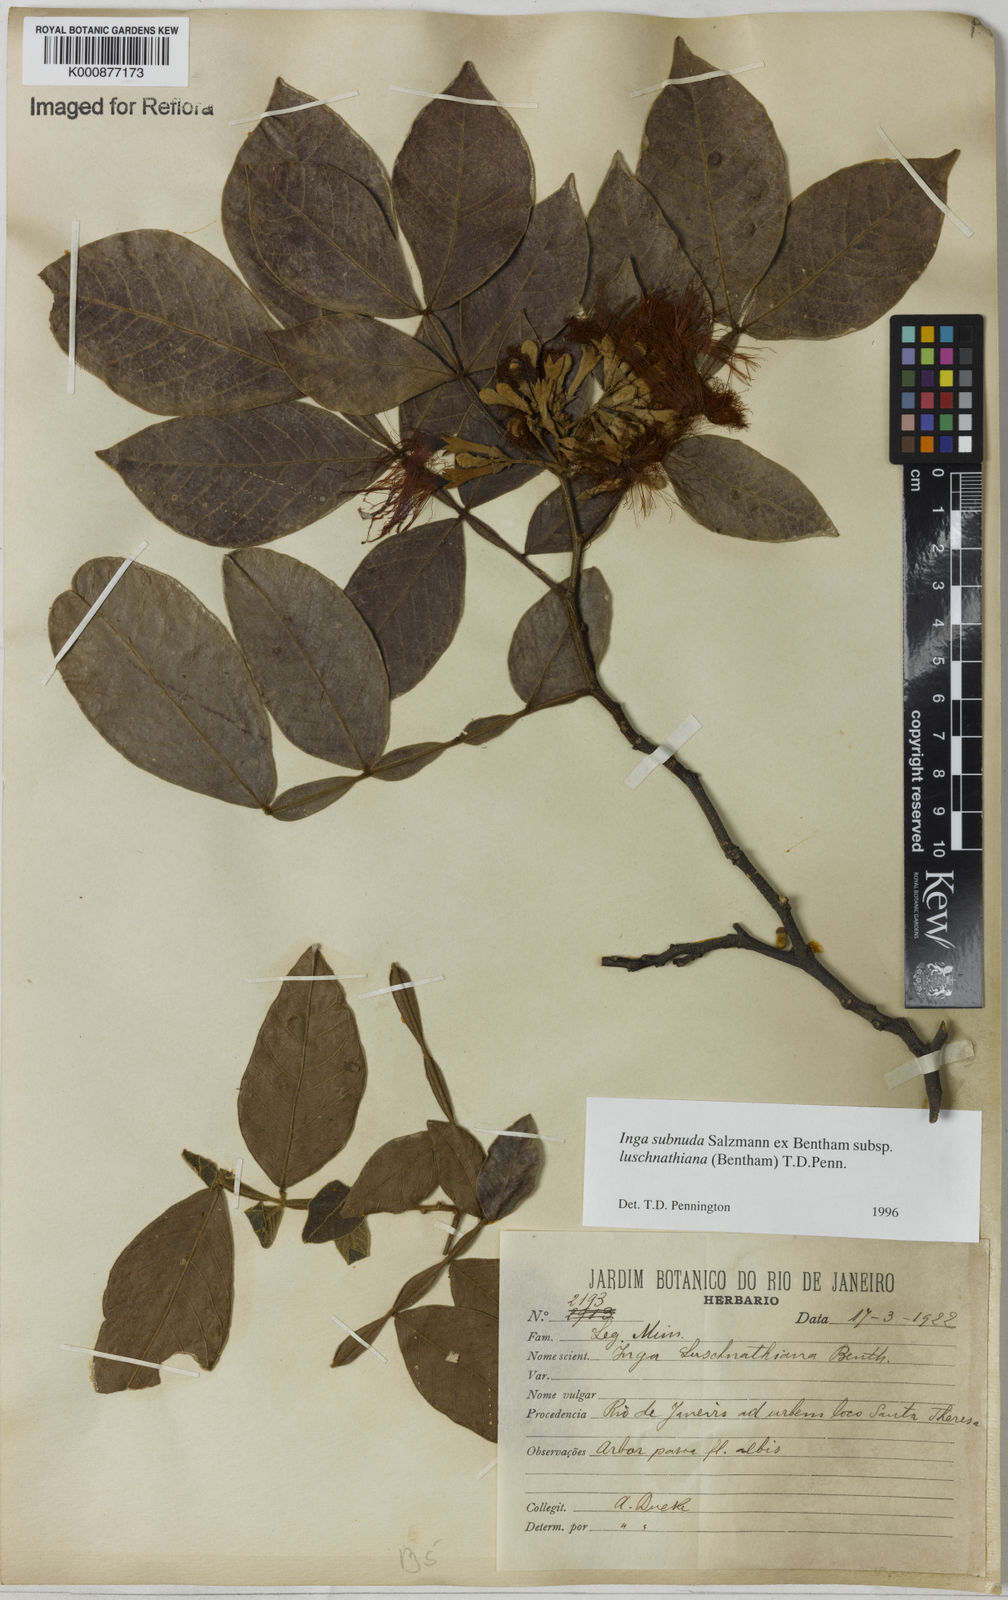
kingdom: Plantae
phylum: Tracheophyta
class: Magnoliopsida
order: Fabales
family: Fabaceae
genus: Inga
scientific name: Inga subnuda
